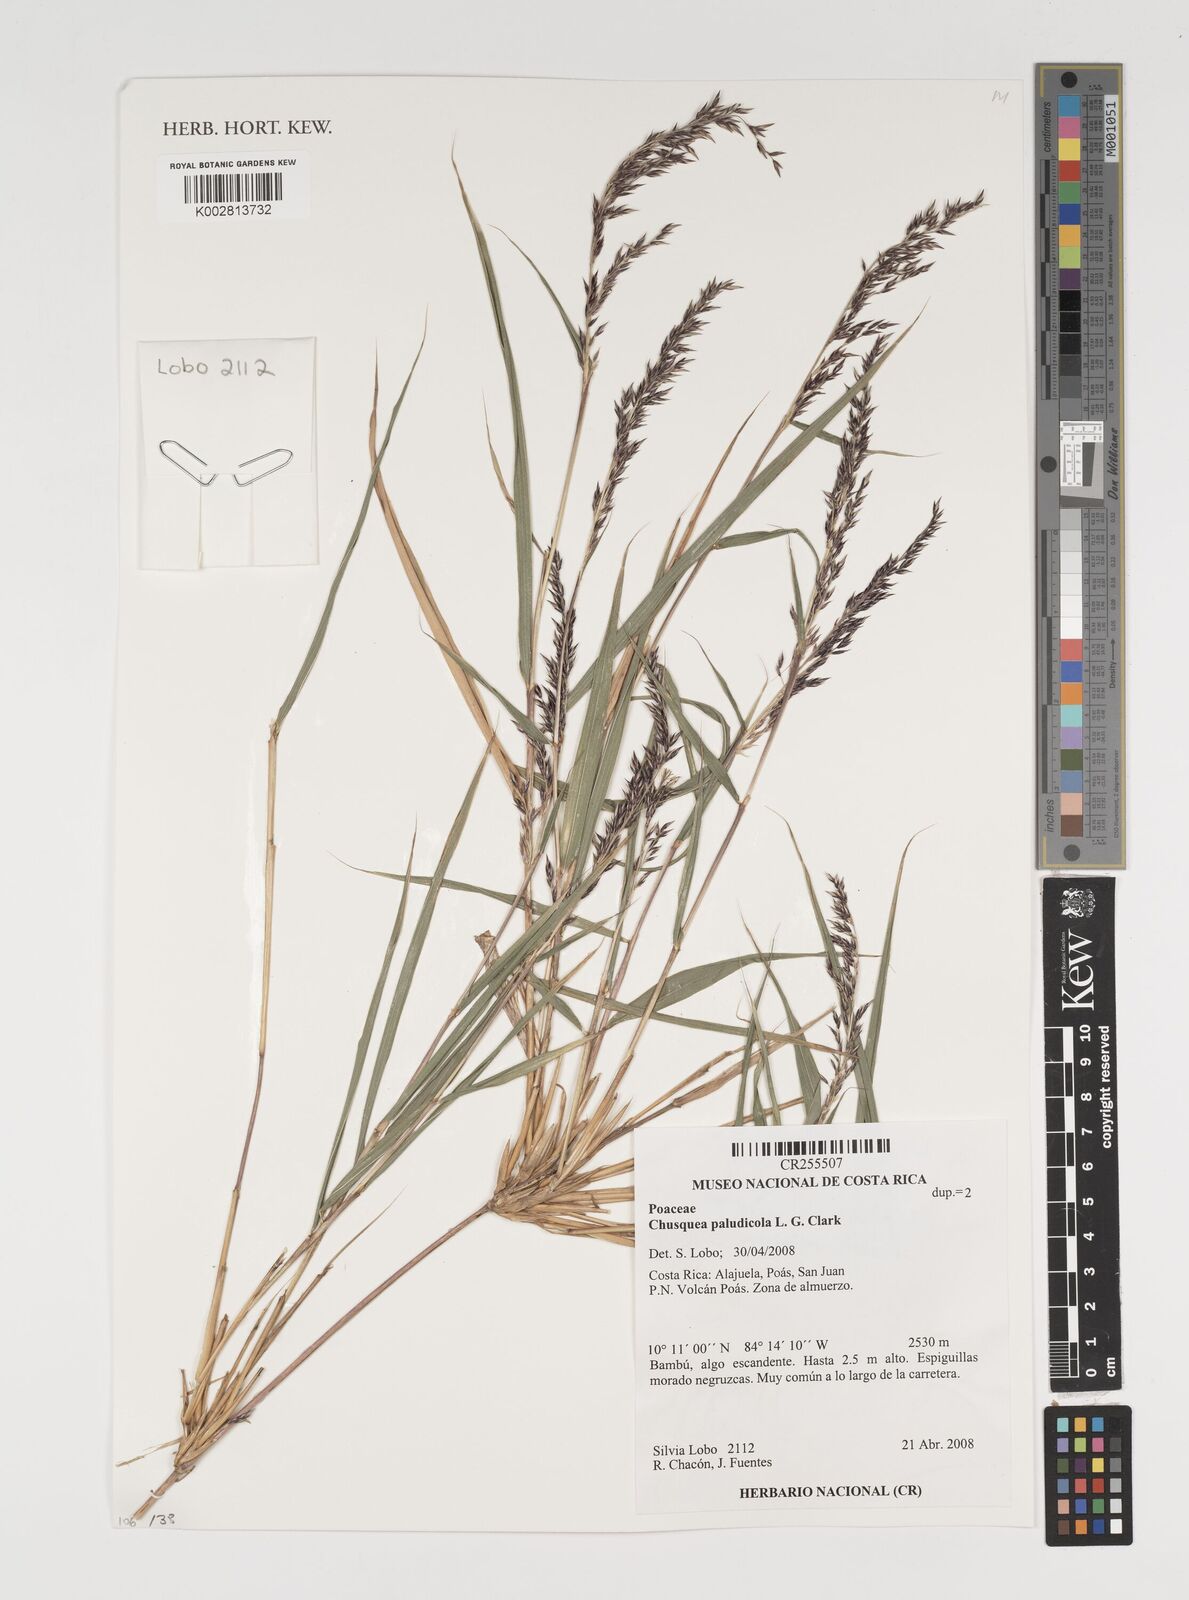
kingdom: Plantae
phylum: Tracheophyta
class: Liliopsida
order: Poales
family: Poaceae
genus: Chusquea
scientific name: Chusquea paludicola
